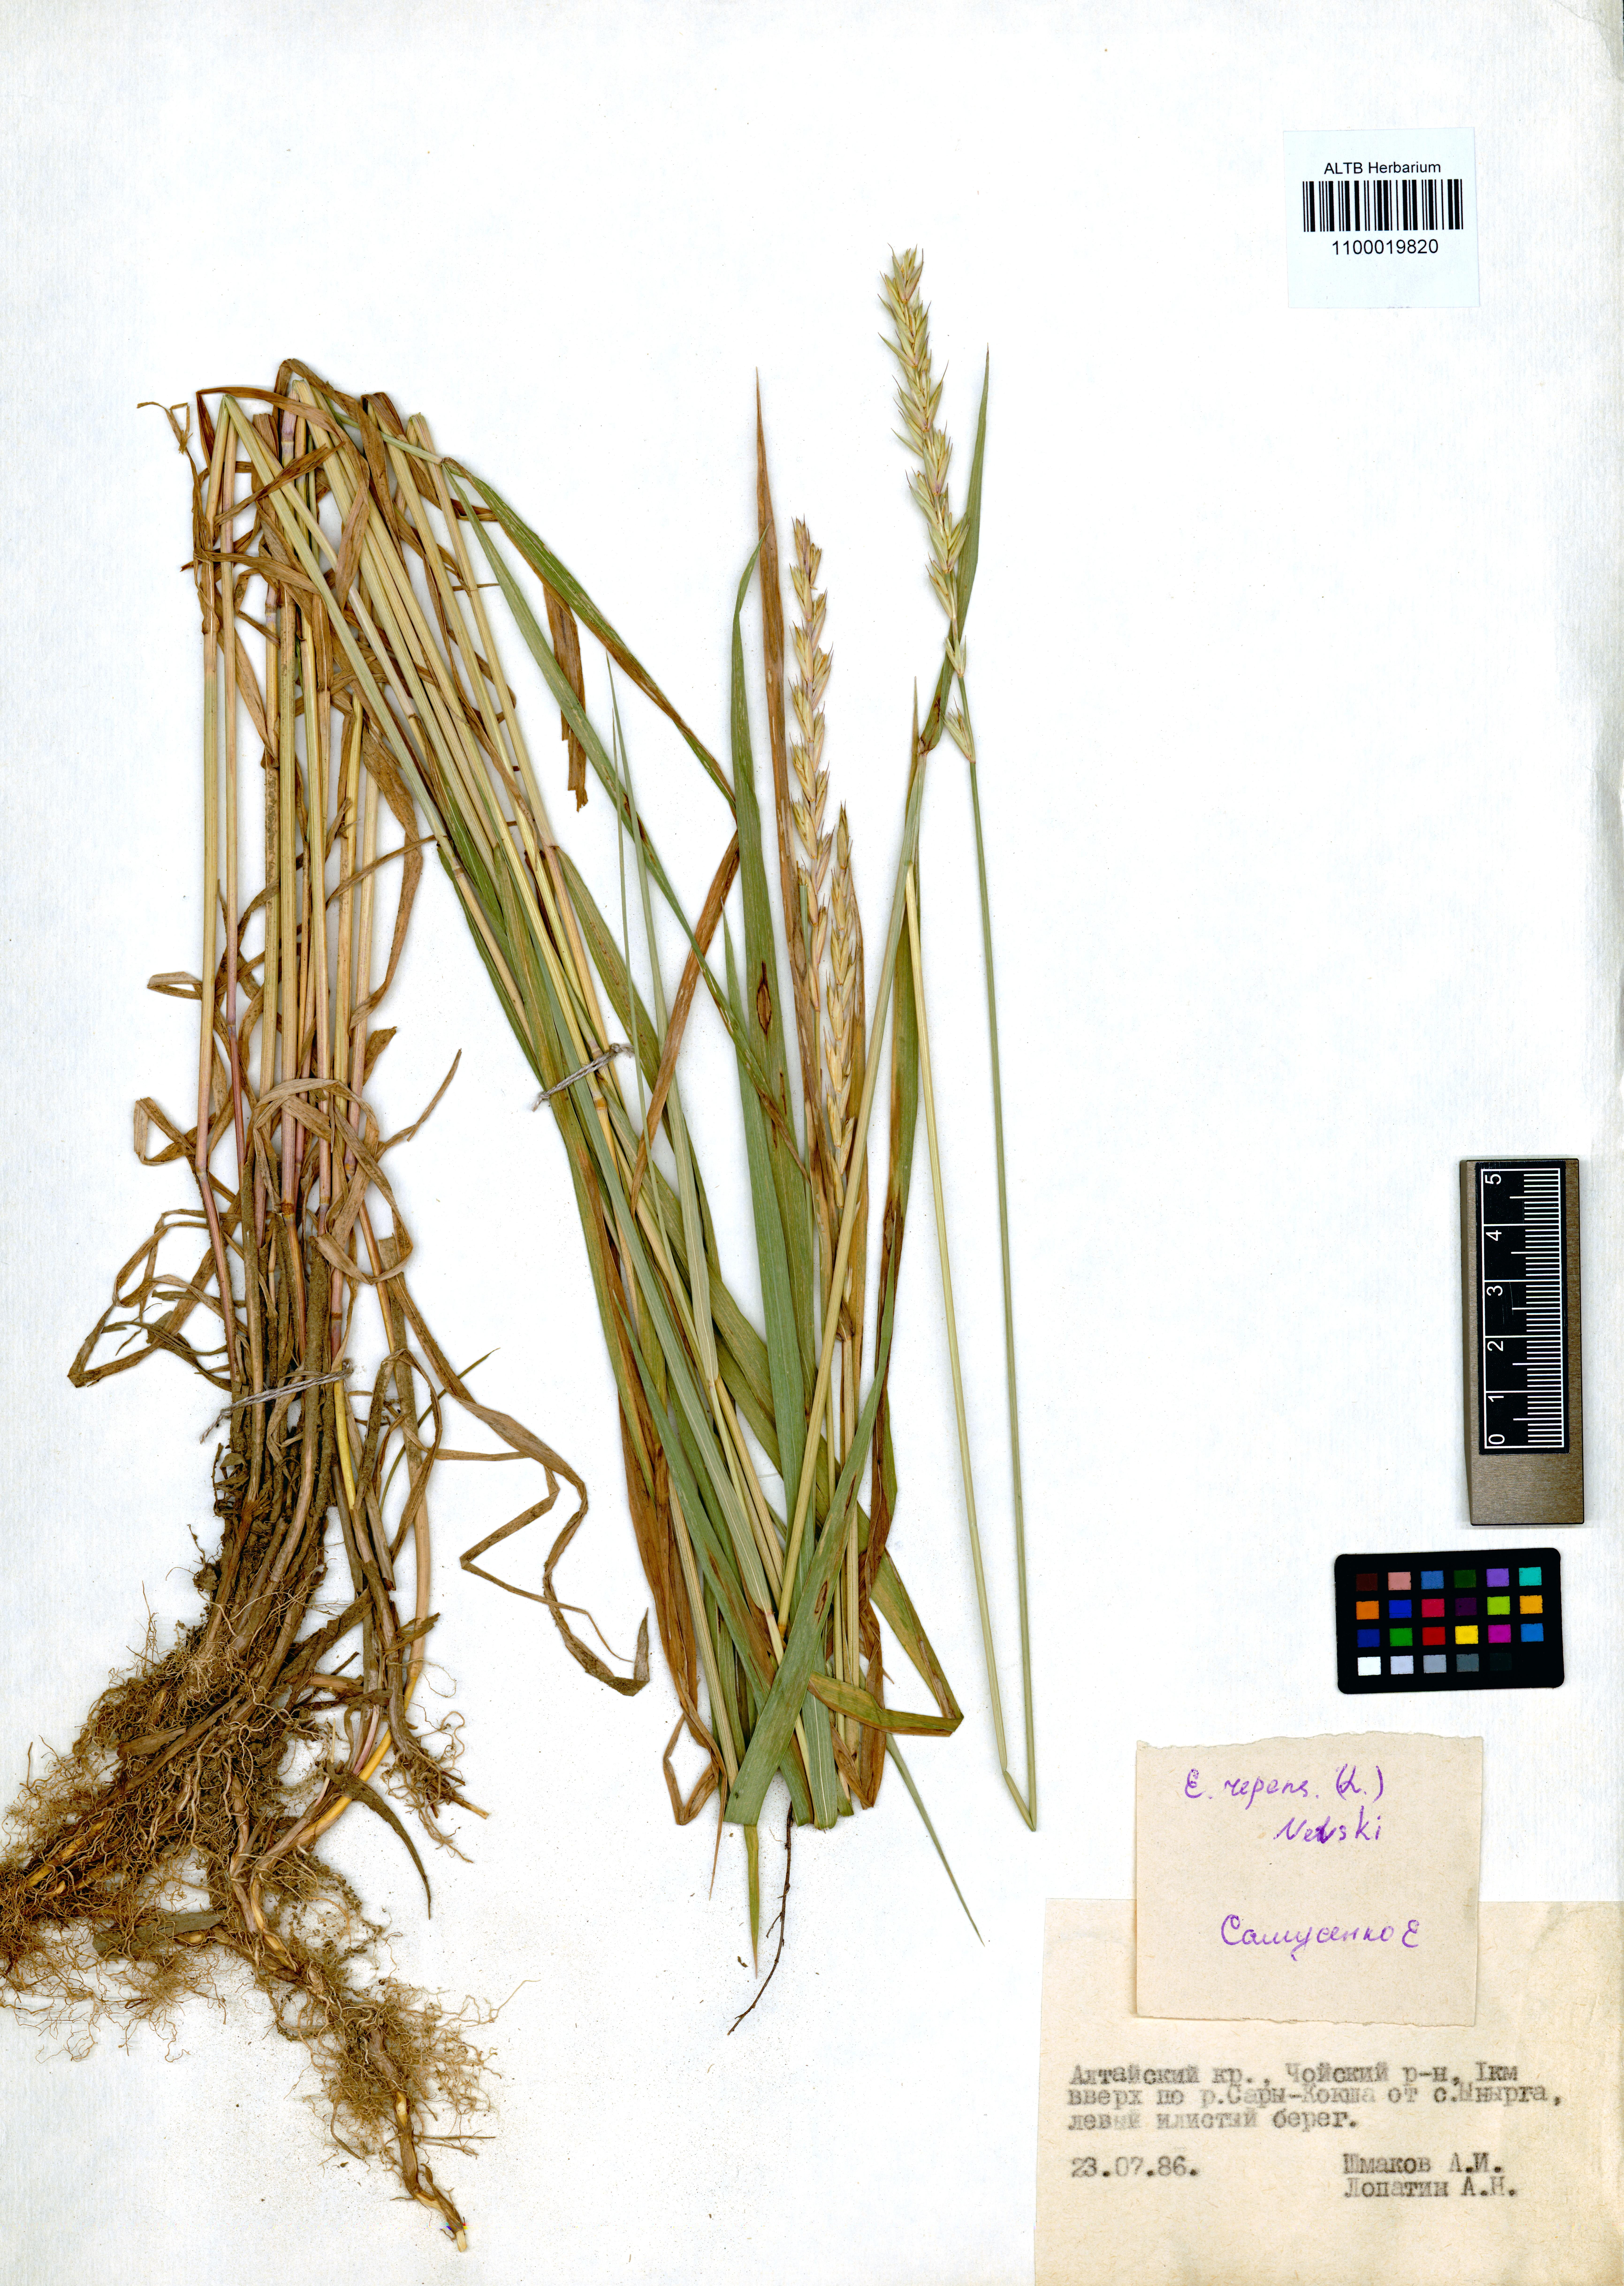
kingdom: Plantae
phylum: Tracheophyta
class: Liliopsida
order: Poales
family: Poaceae
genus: Elymus
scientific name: Elymus repens
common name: Quackgrass
